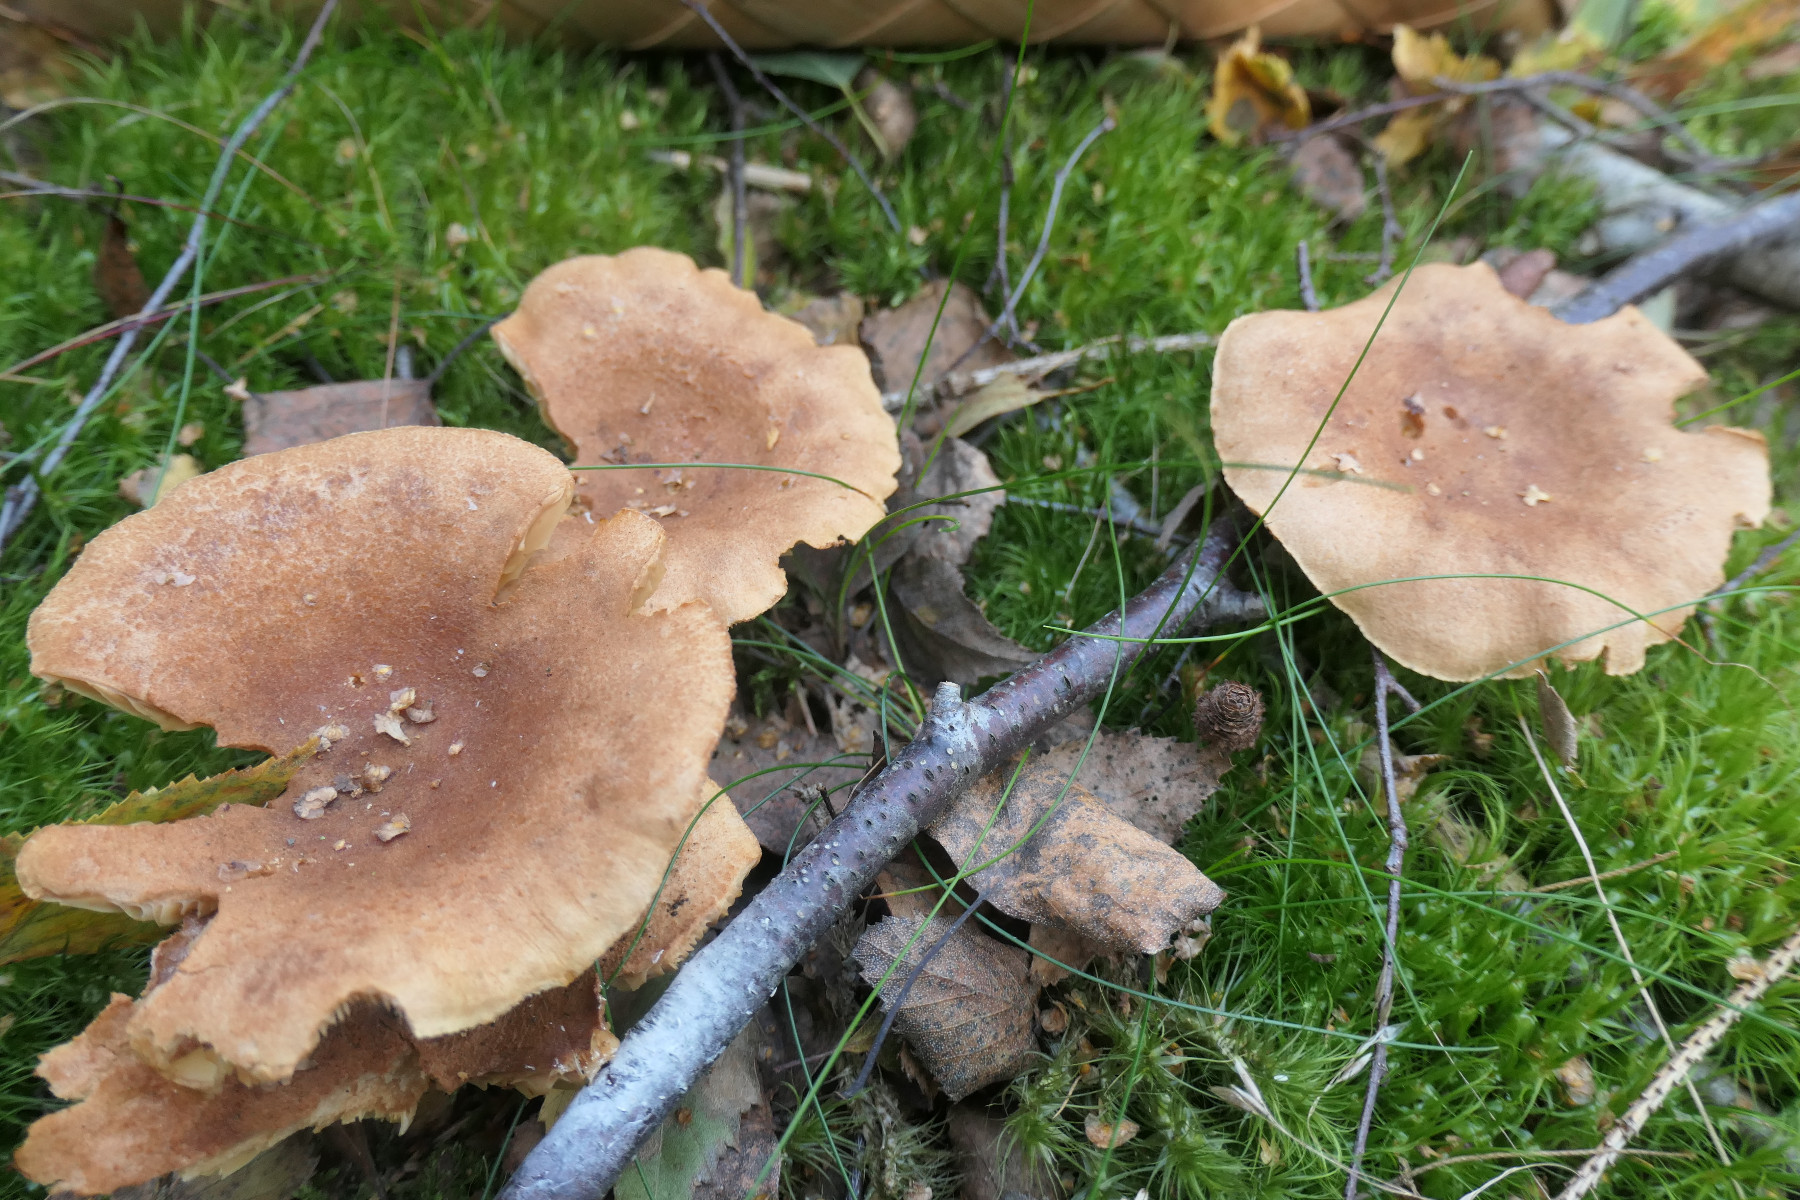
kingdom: Fungi
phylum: Basidiomycota
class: Agaricomycetes
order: Russulales
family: Russulaceae
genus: Lactarius
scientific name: Lactarius helvus
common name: mose-mælkehat
